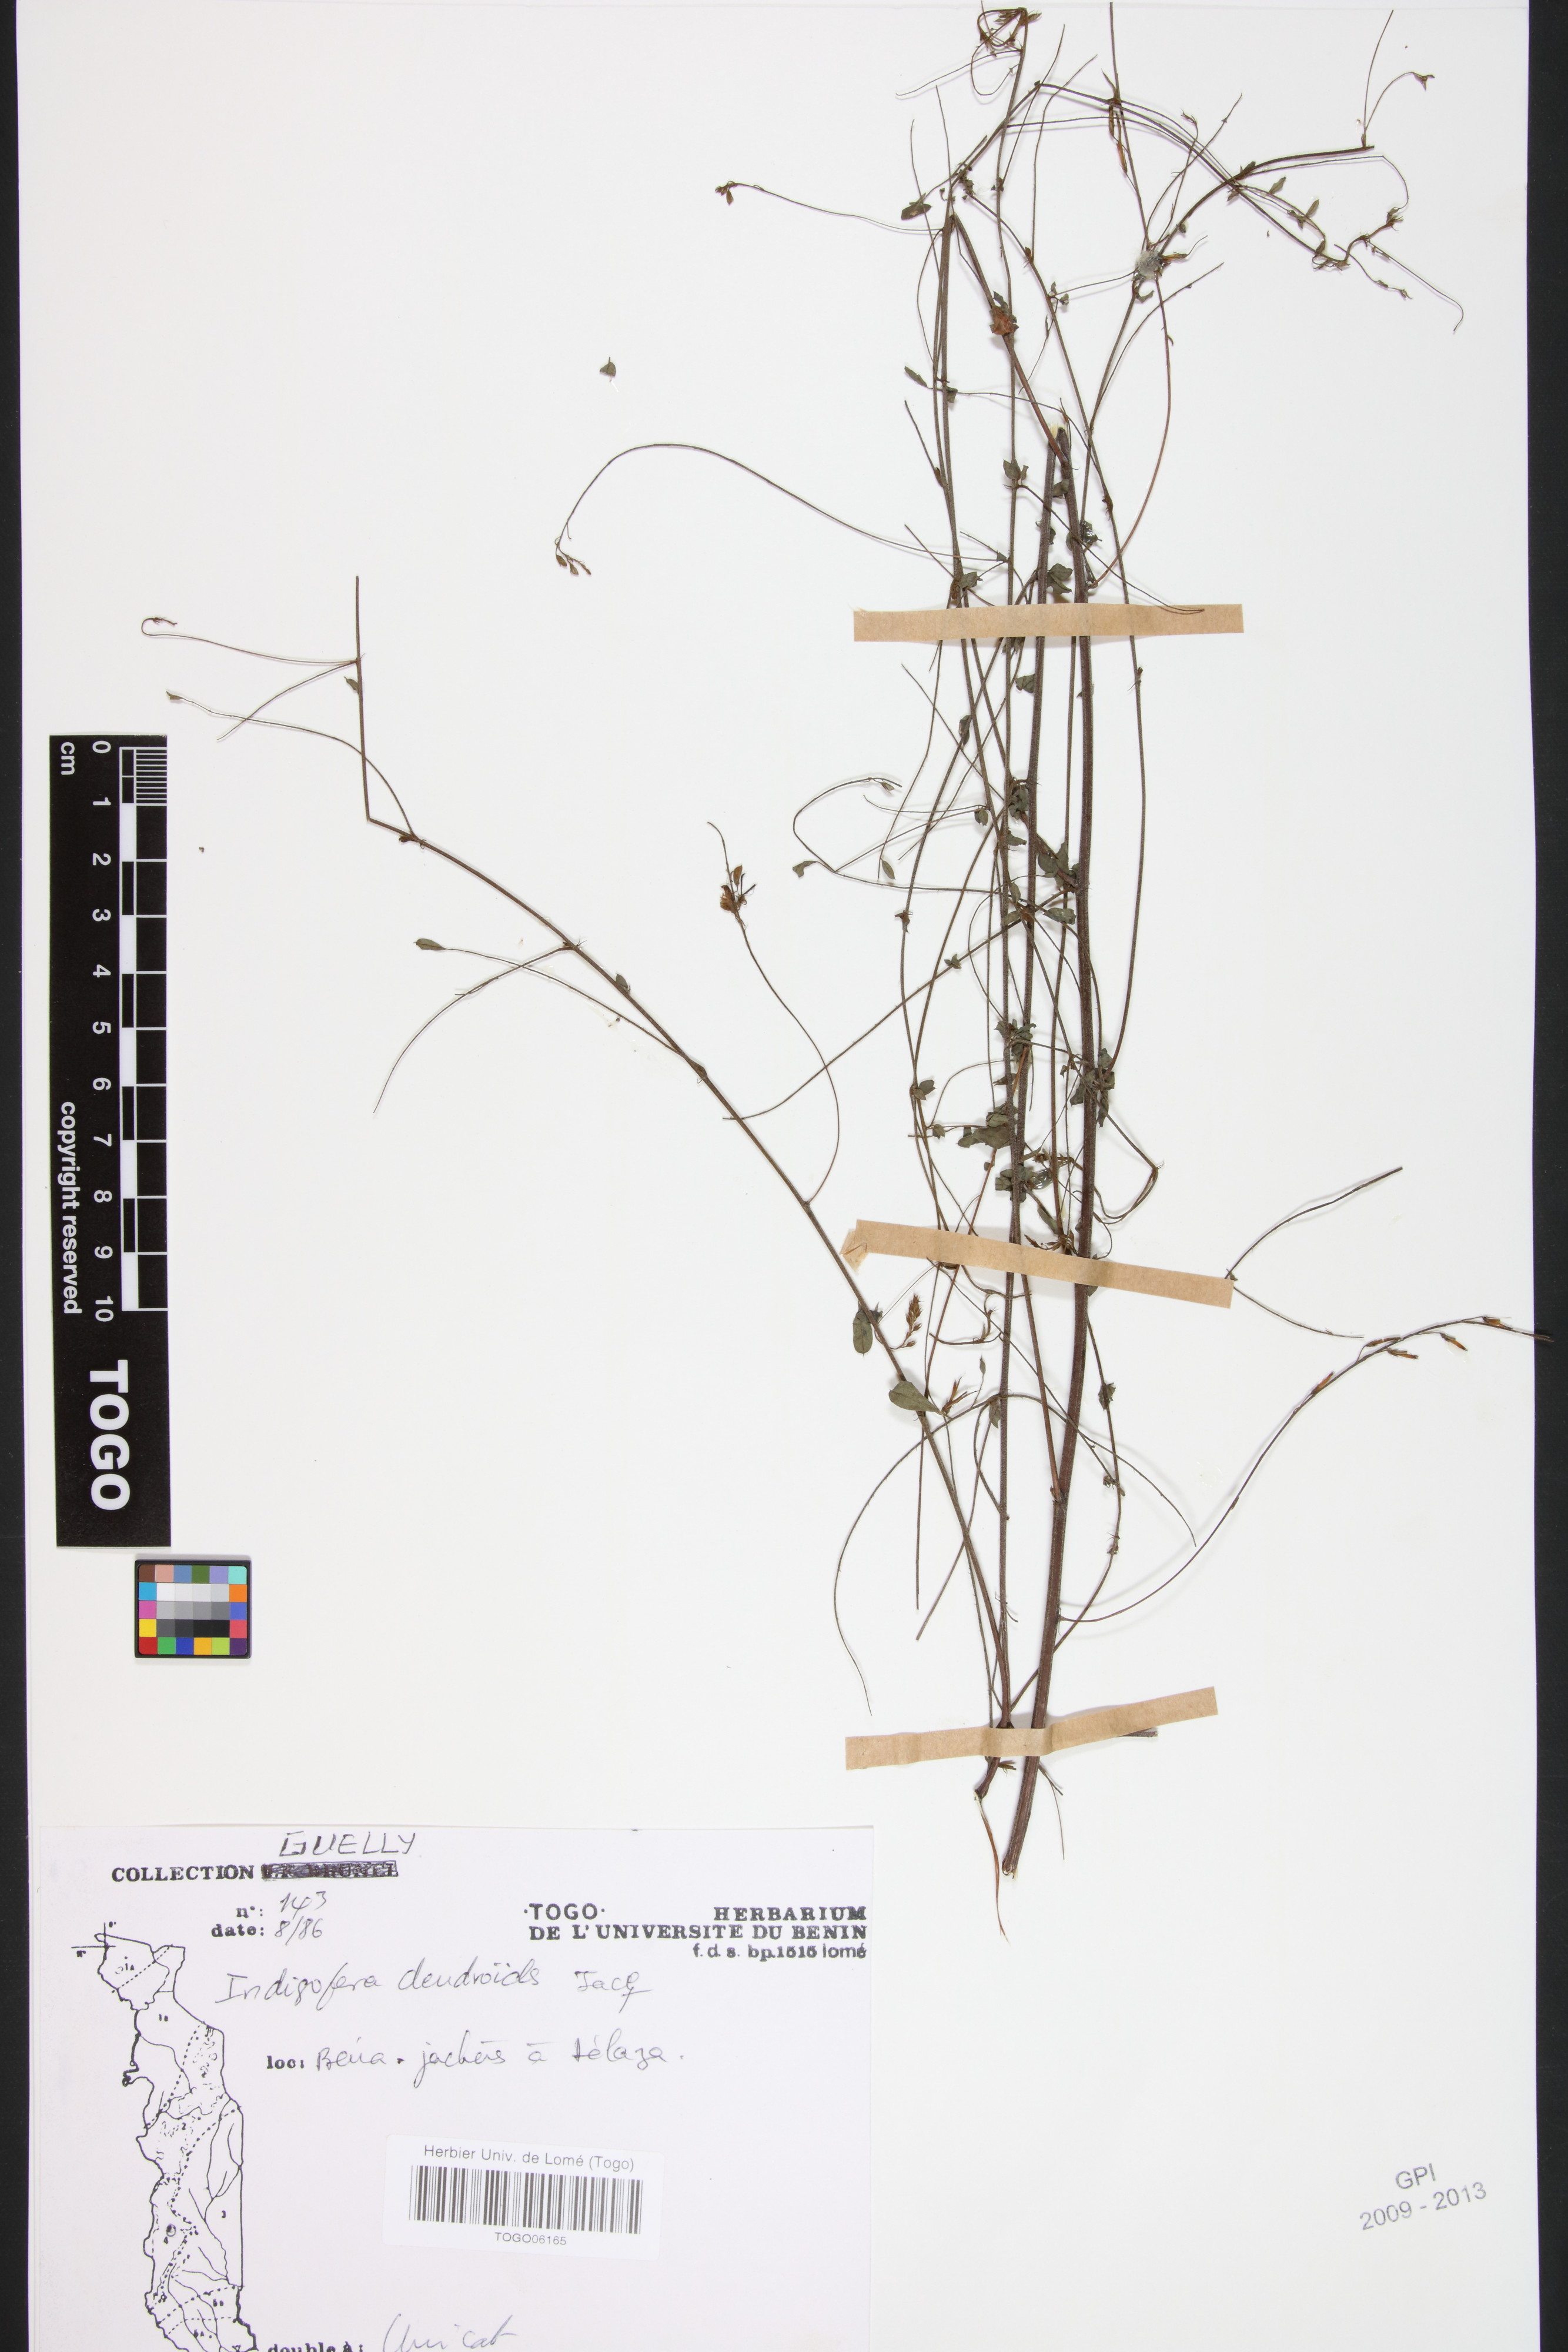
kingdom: Plantae
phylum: Tracheophyta
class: Magnoliopsida
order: Fabales
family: Fabaceae
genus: Indigofera
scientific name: Indigofera dendroides
